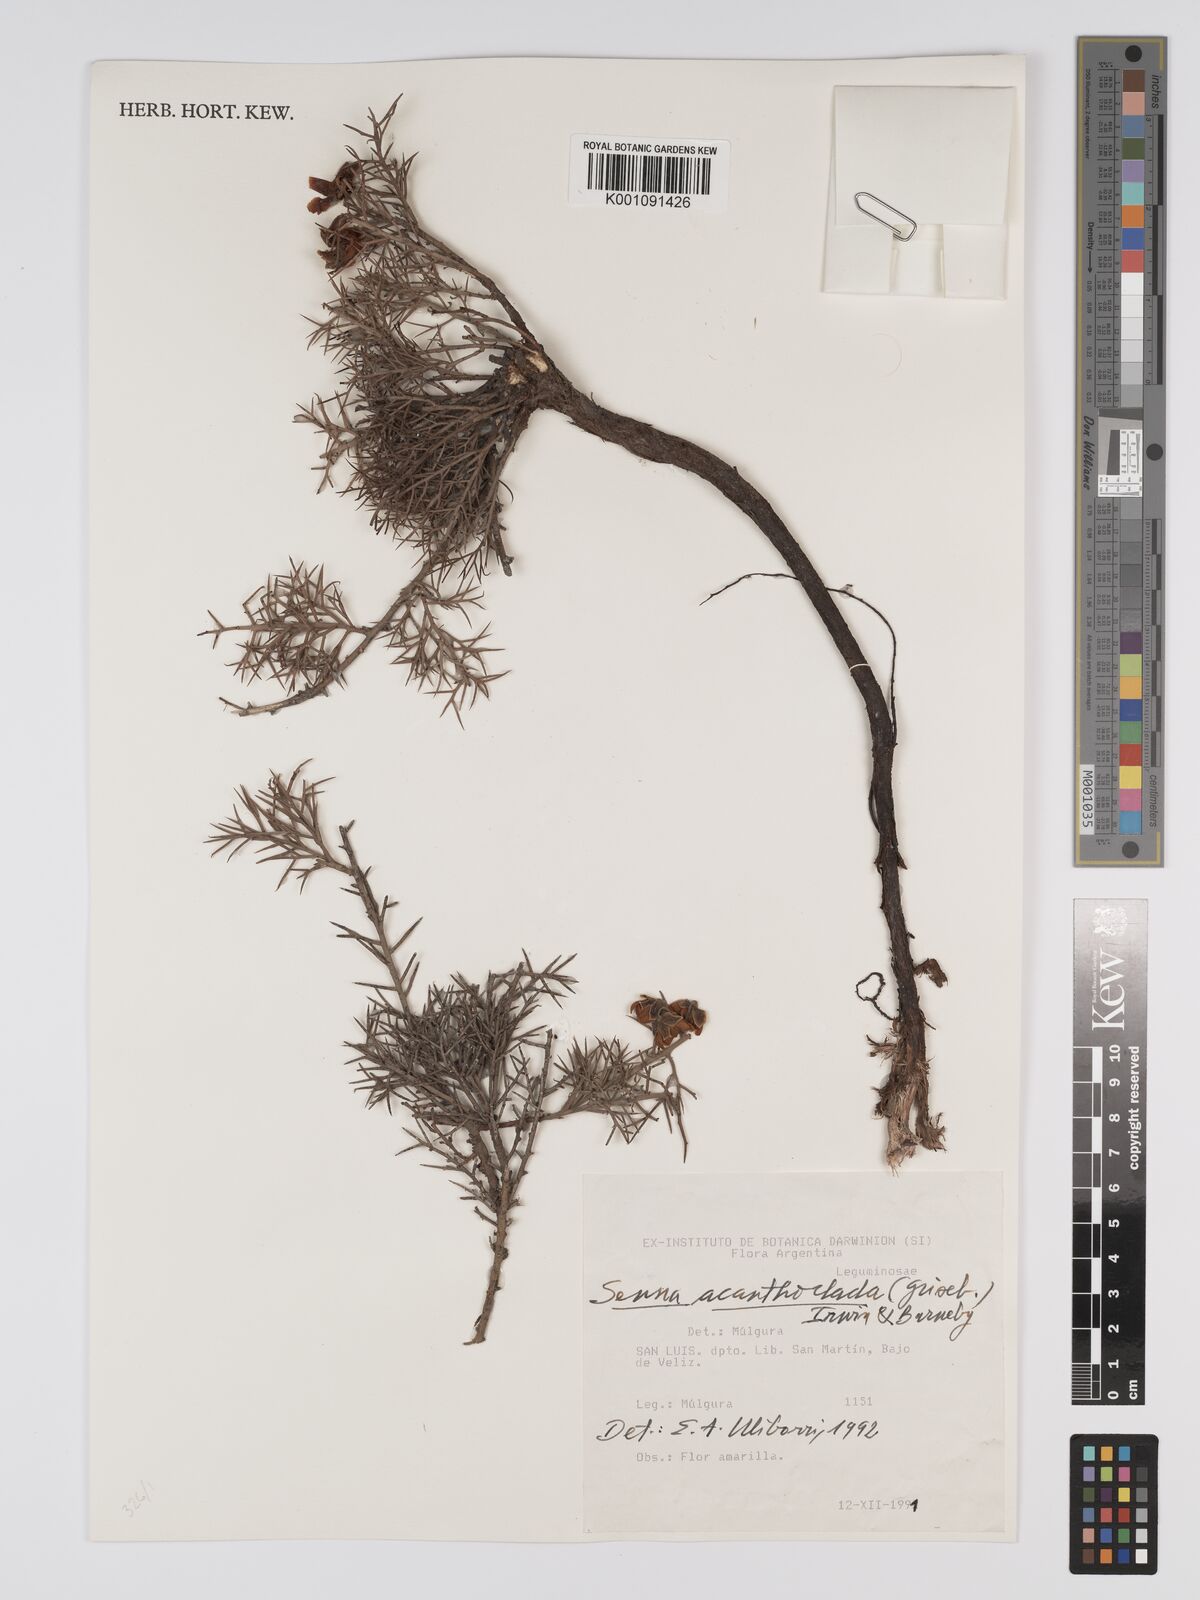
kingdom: Plantae
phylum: Tracheophyta
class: Magnoliopsida
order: Fabales
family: Fabaceae
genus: Senna
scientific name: Senna acanthoclada
